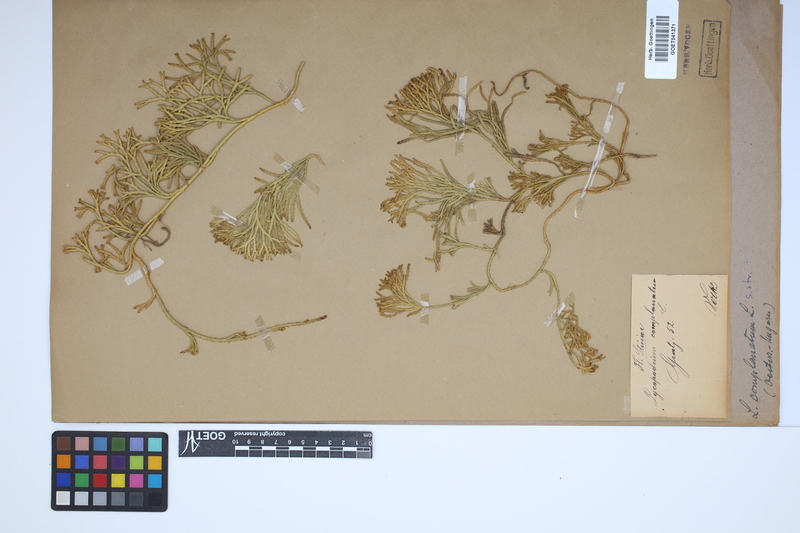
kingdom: Plantae
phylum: Tracheophyta
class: Lycopodiopsida
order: Lycopodiales
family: Lycopodiaceae
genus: Diphasiastrum
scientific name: Diphasiastrum complanatum
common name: Northern running-pine
